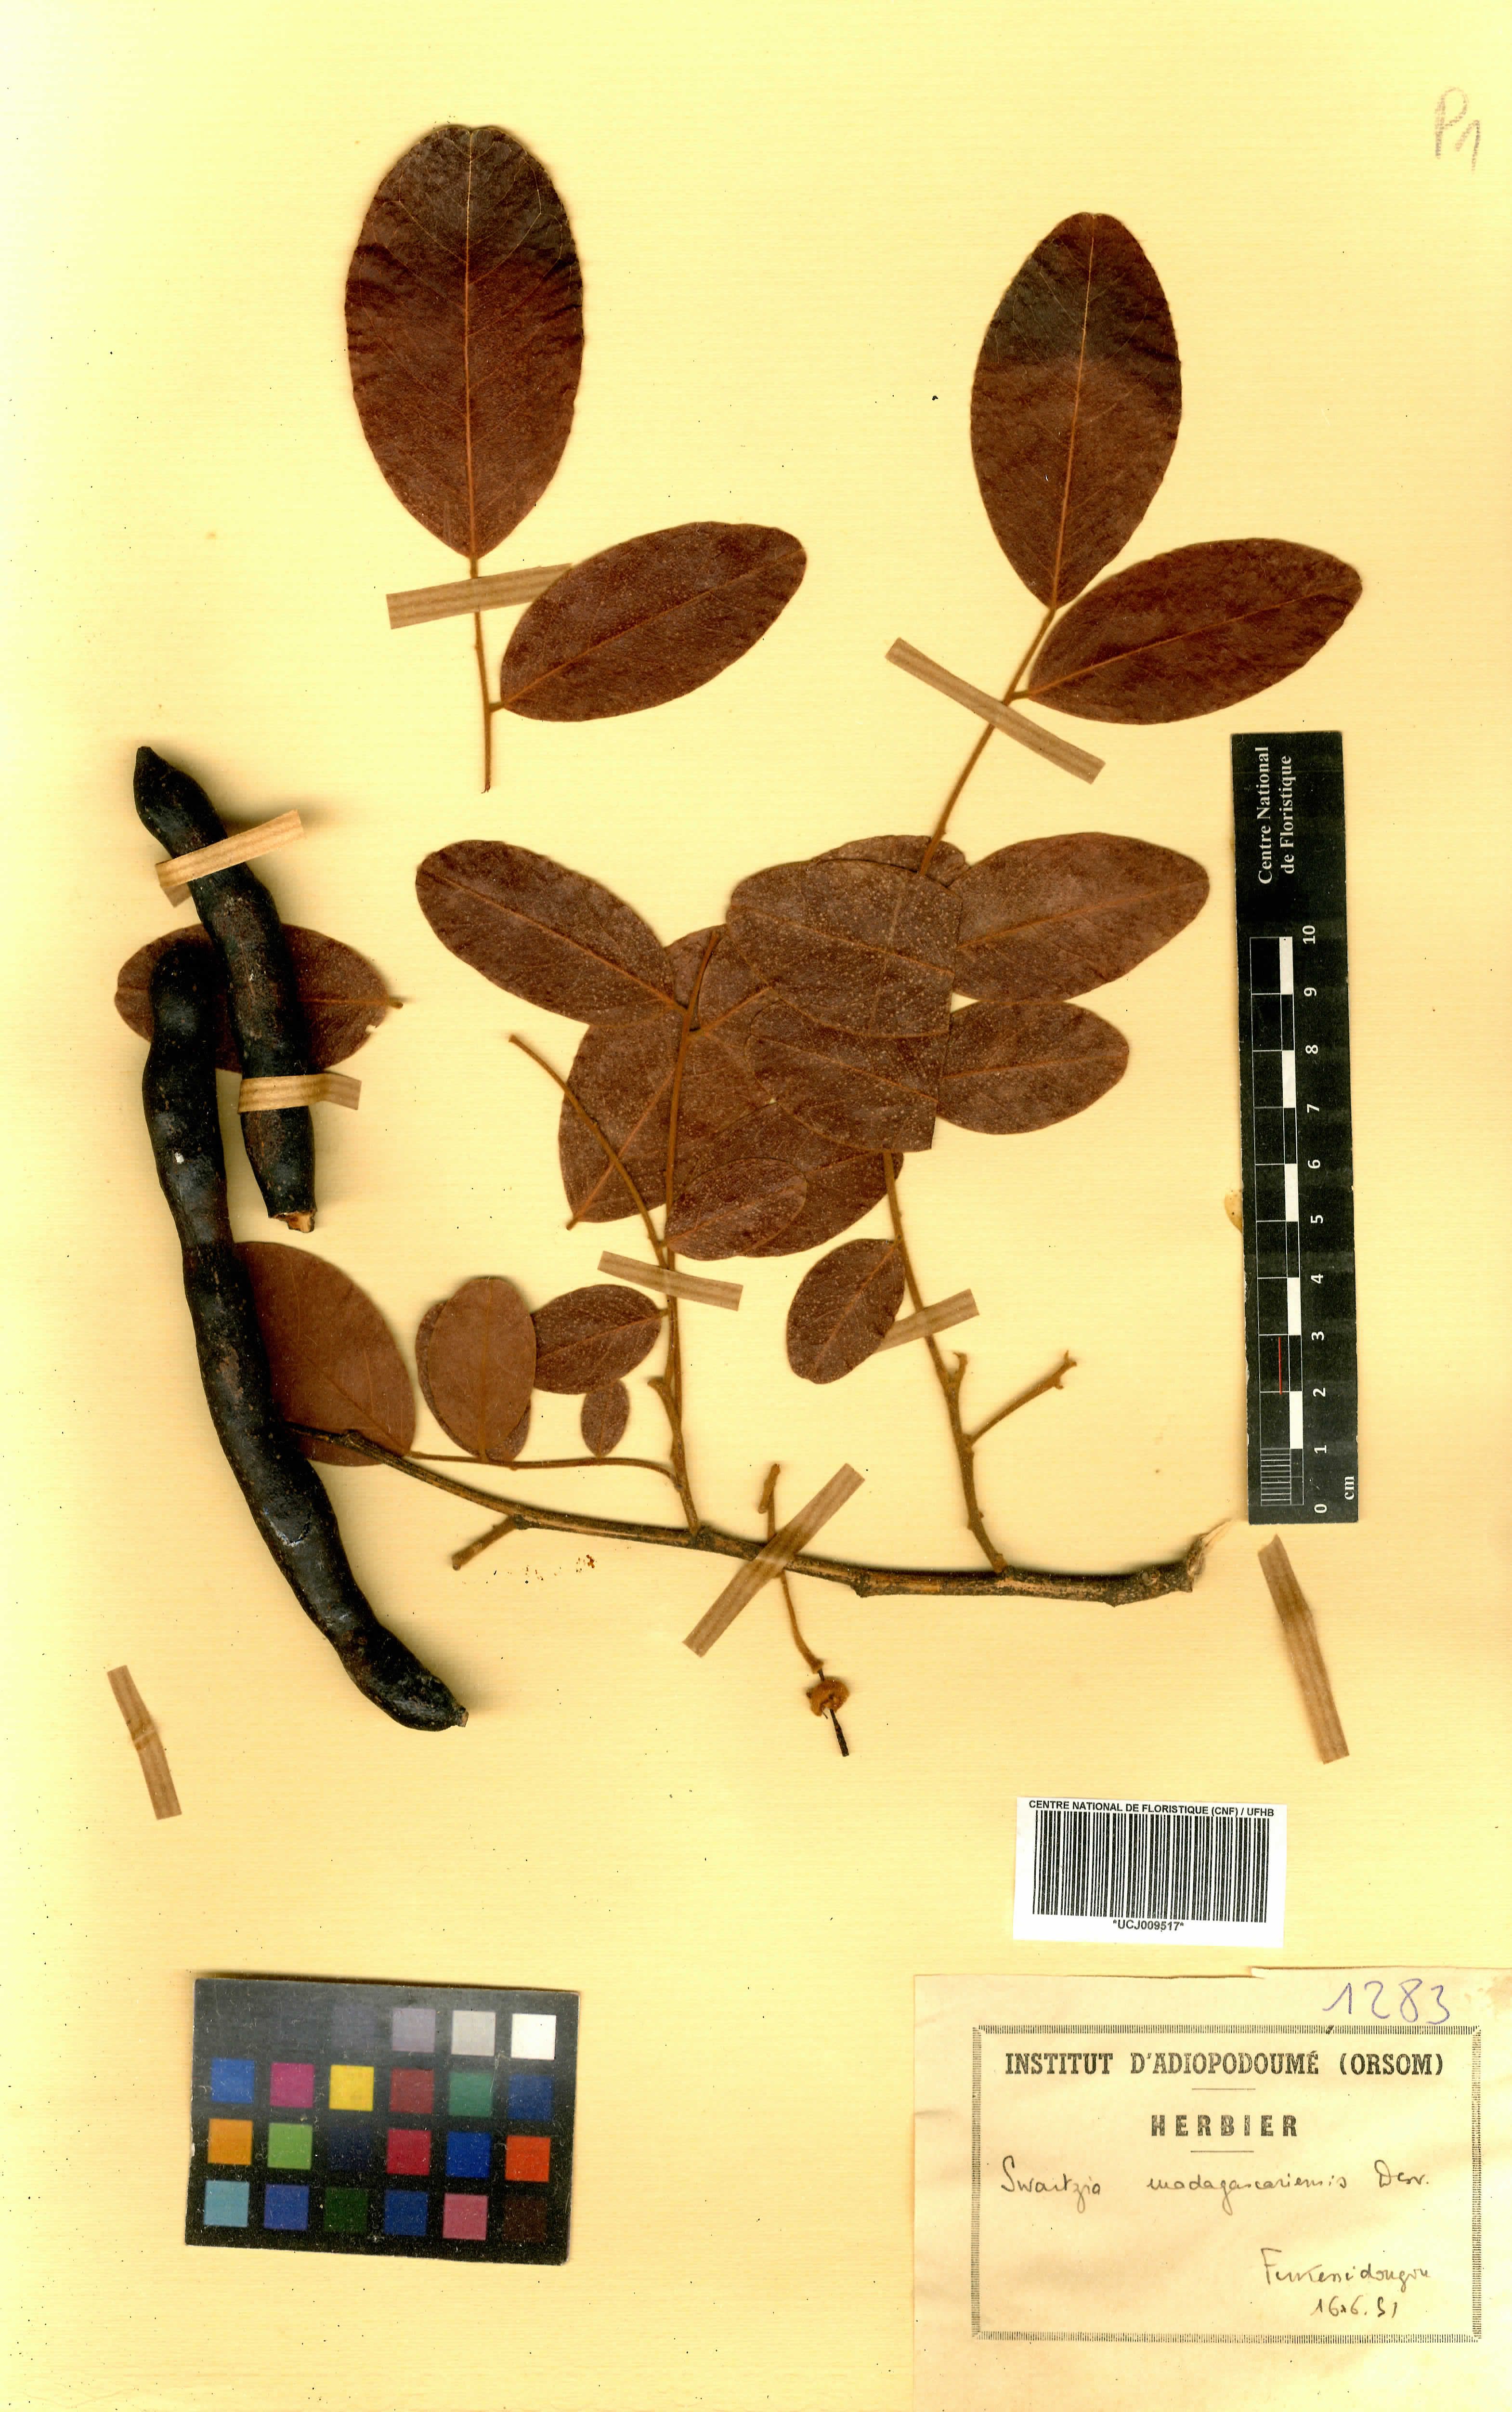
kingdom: Plantae
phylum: Tracheophyta
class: Magnoliopsida
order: Fabales
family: Fabaceae
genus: Bobgunnia
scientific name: Bobgunnia madagascariensis
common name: Snake bean plant
